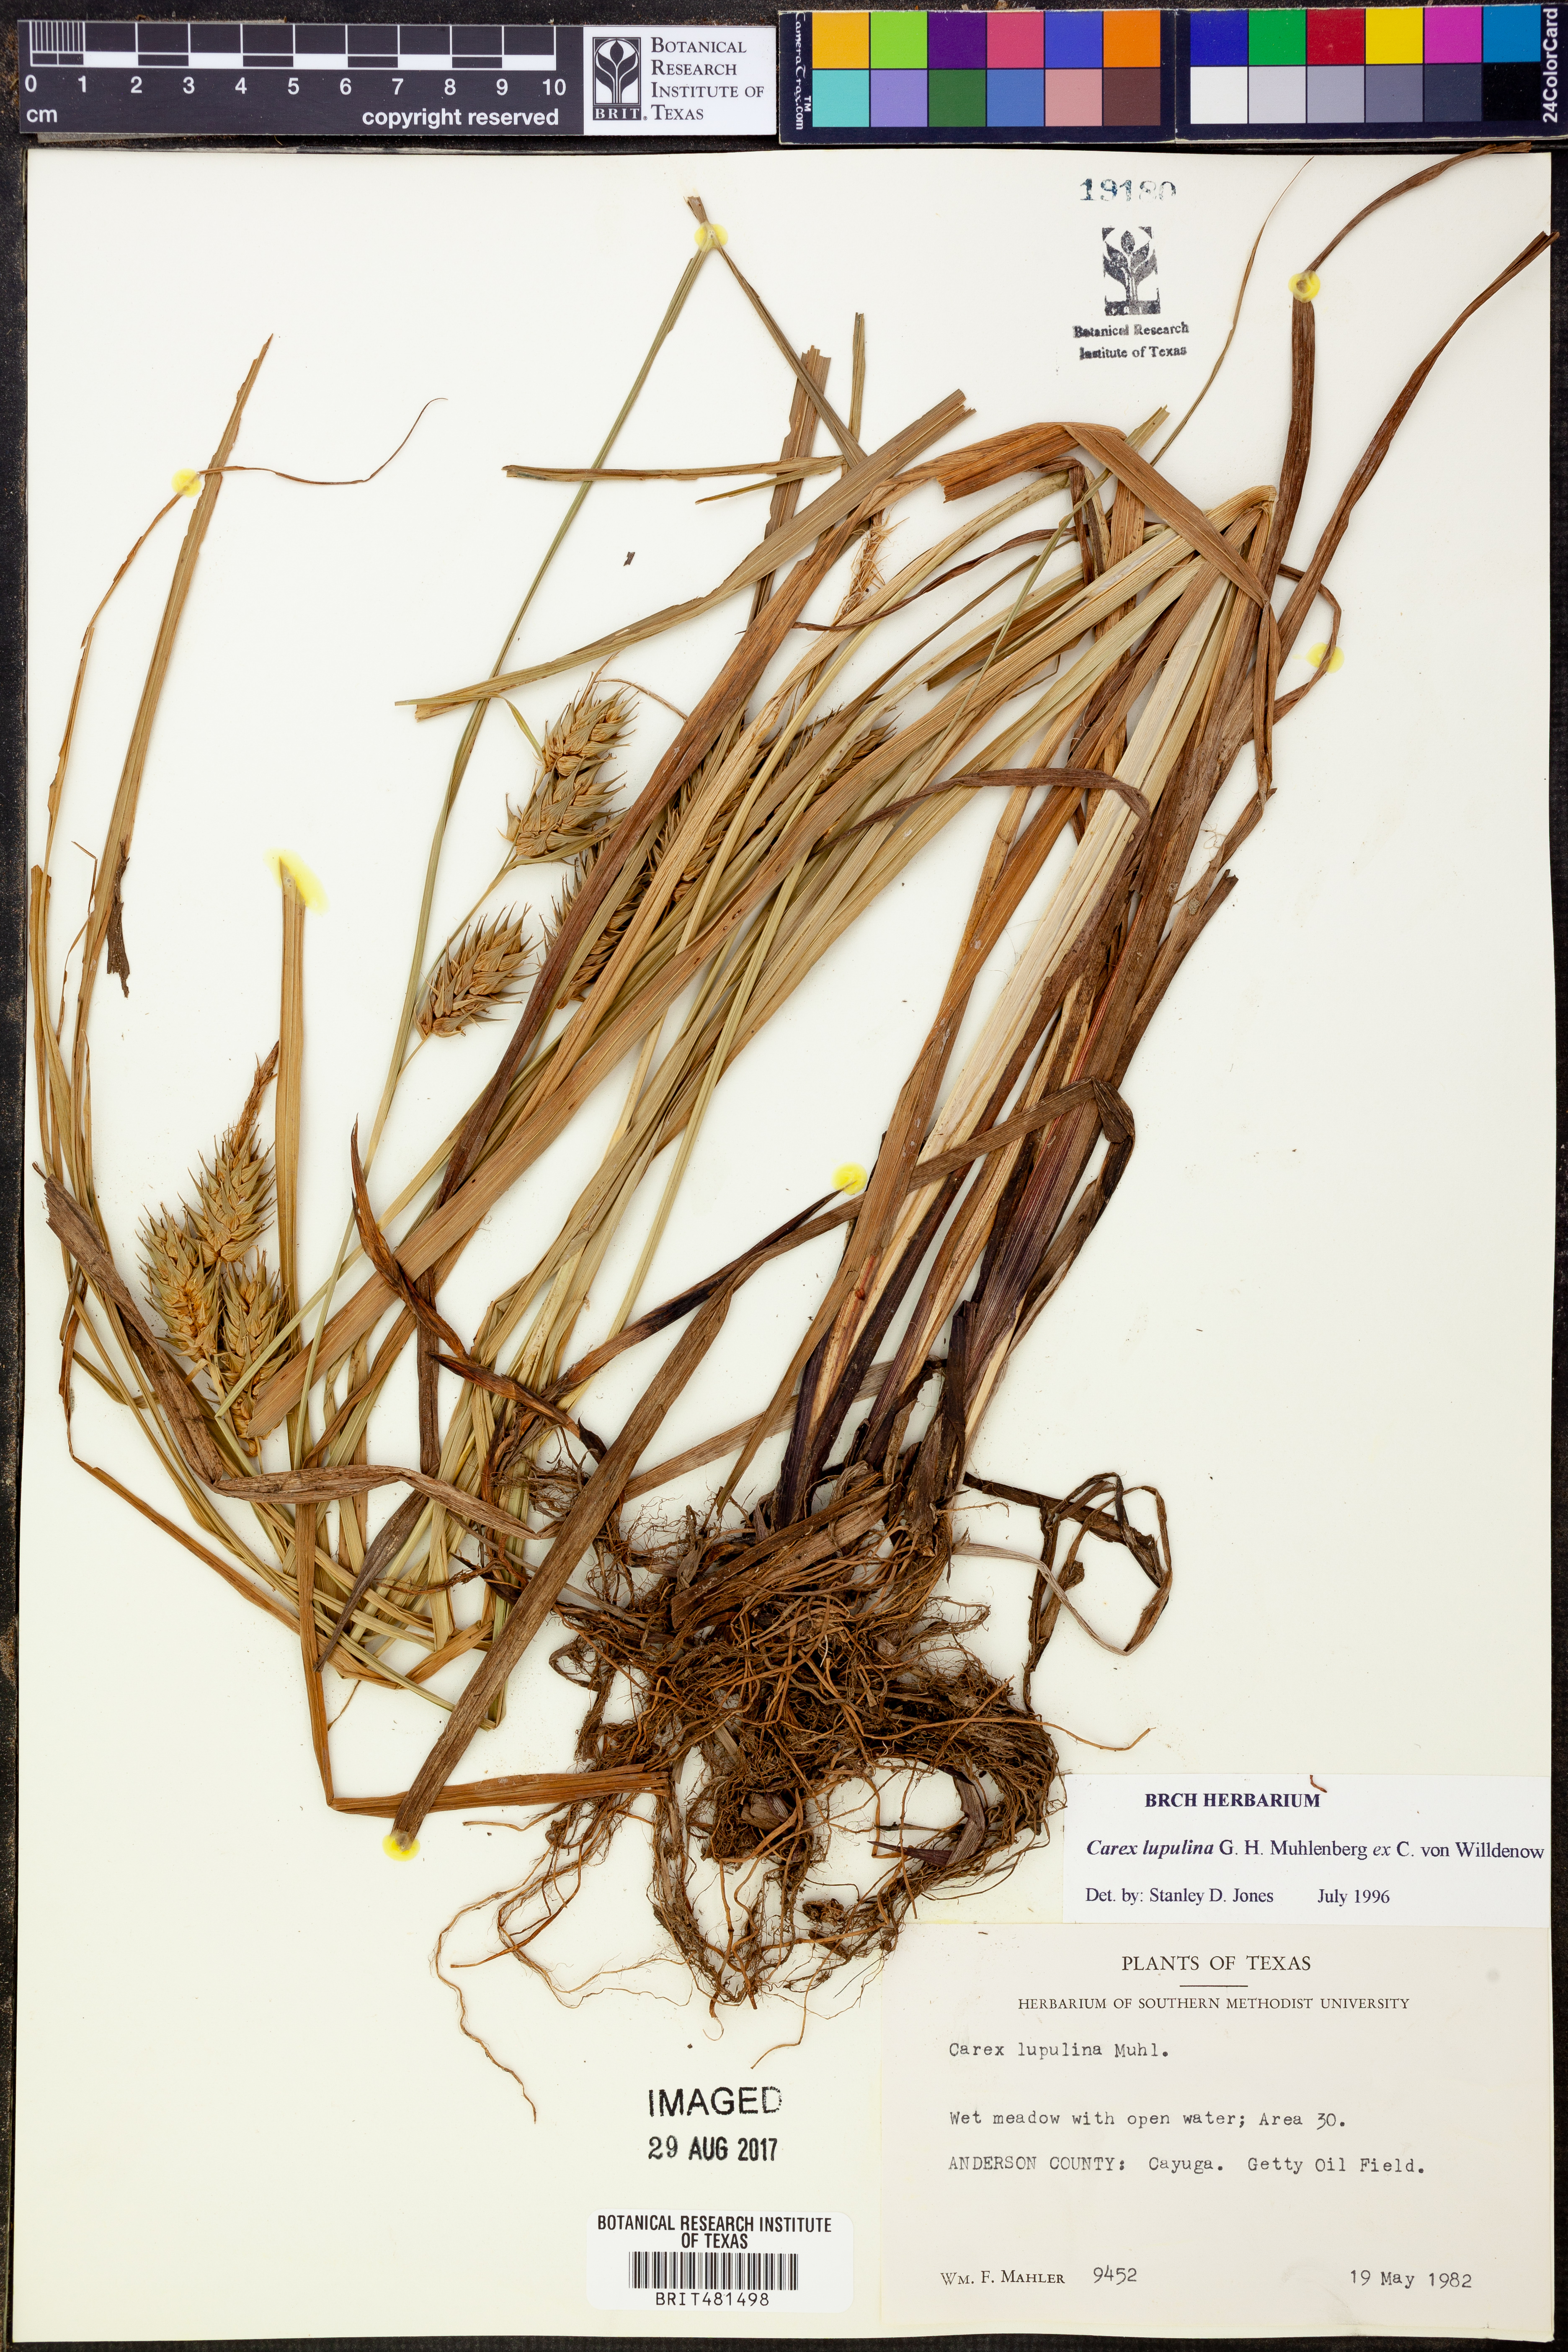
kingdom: Plantae
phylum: Tracheophyta
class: Liliopsida
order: Poales
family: Cyperaceae
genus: Carex
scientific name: Carex lupulina
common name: Hop sedge
